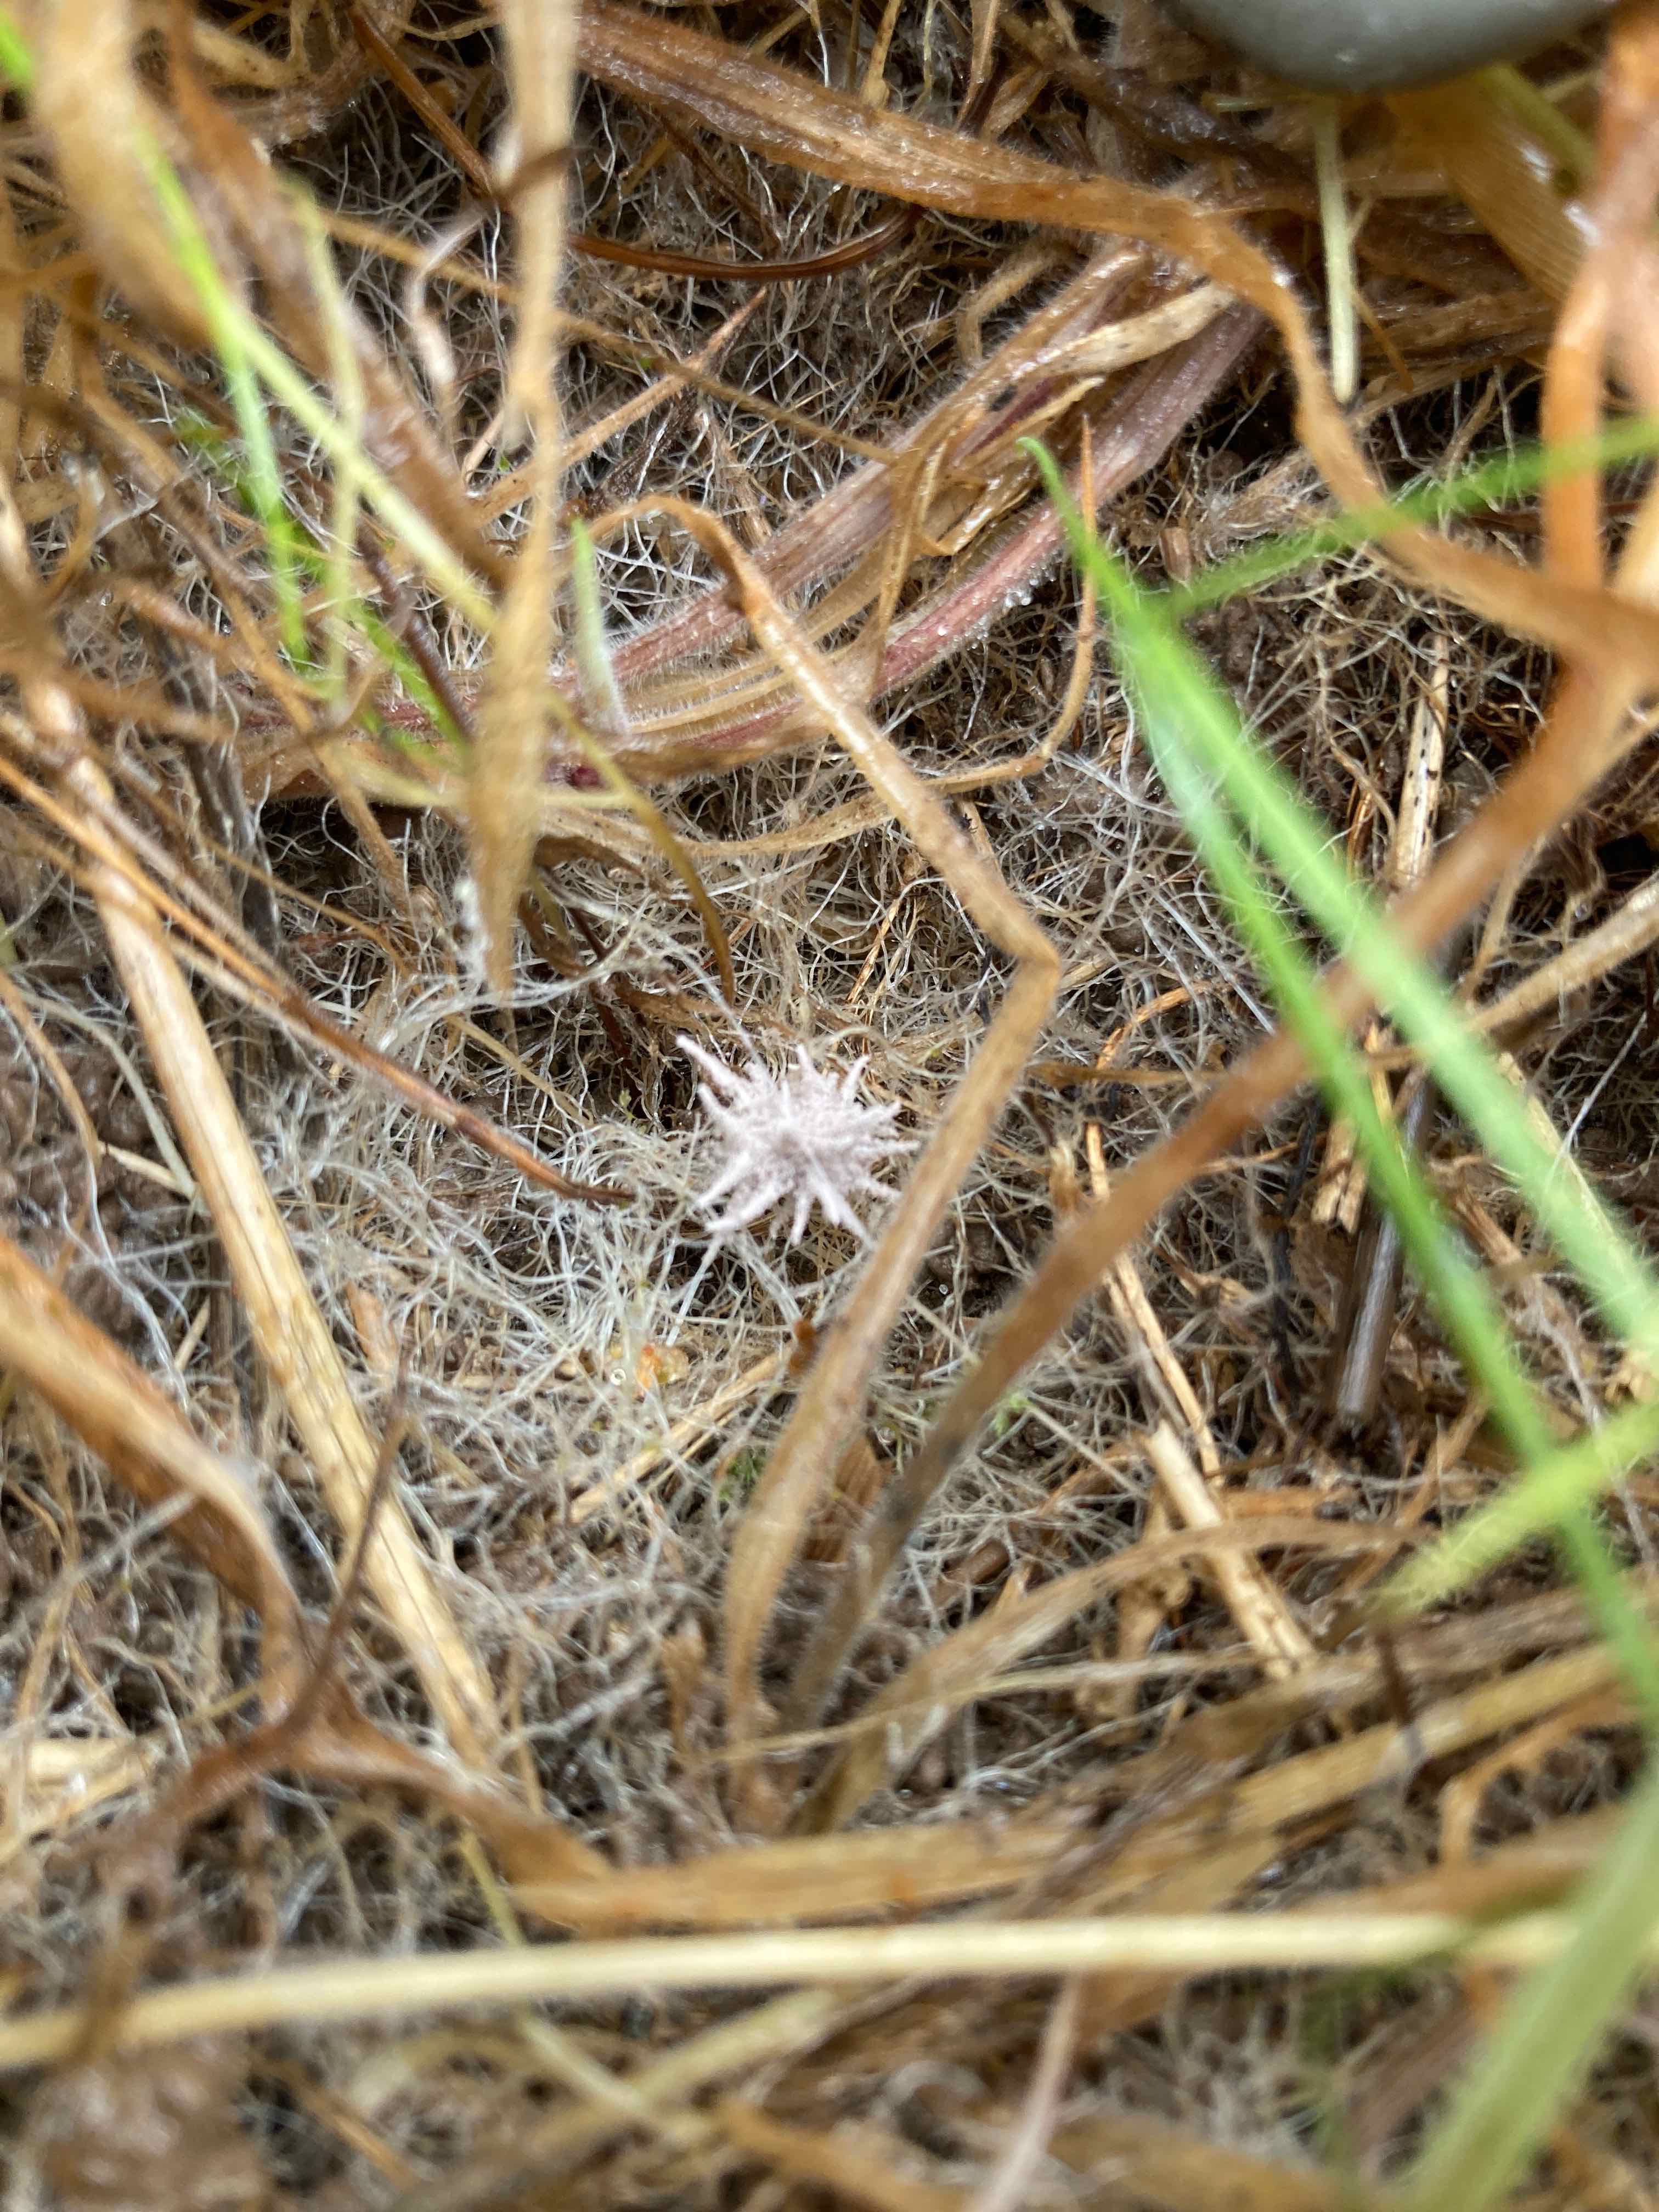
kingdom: Fungi
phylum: Ascomycota
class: Sordariomycetes
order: Hypocreales
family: Cordycipitaceae
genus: Gibellula
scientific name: Gibellula pulchra
